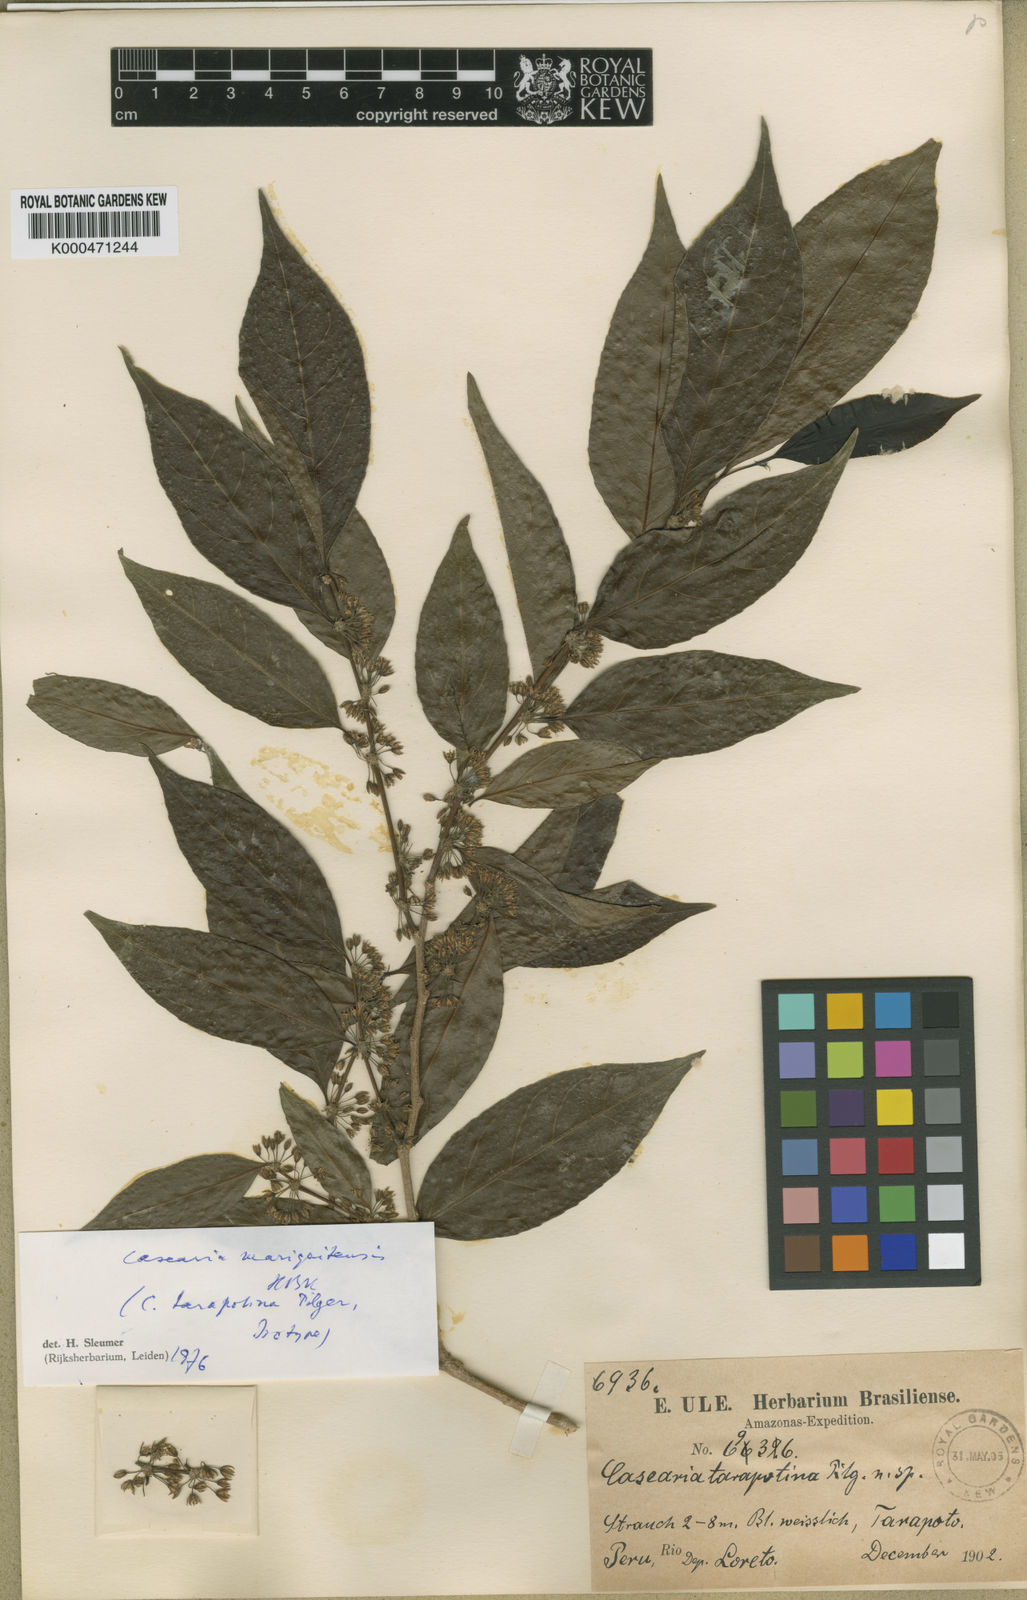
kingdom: Plantae
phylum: Tracheophyta
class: Magnoliopsida
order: Malpighiales
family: Salicaceae
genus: Casearia
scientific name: Casearia
